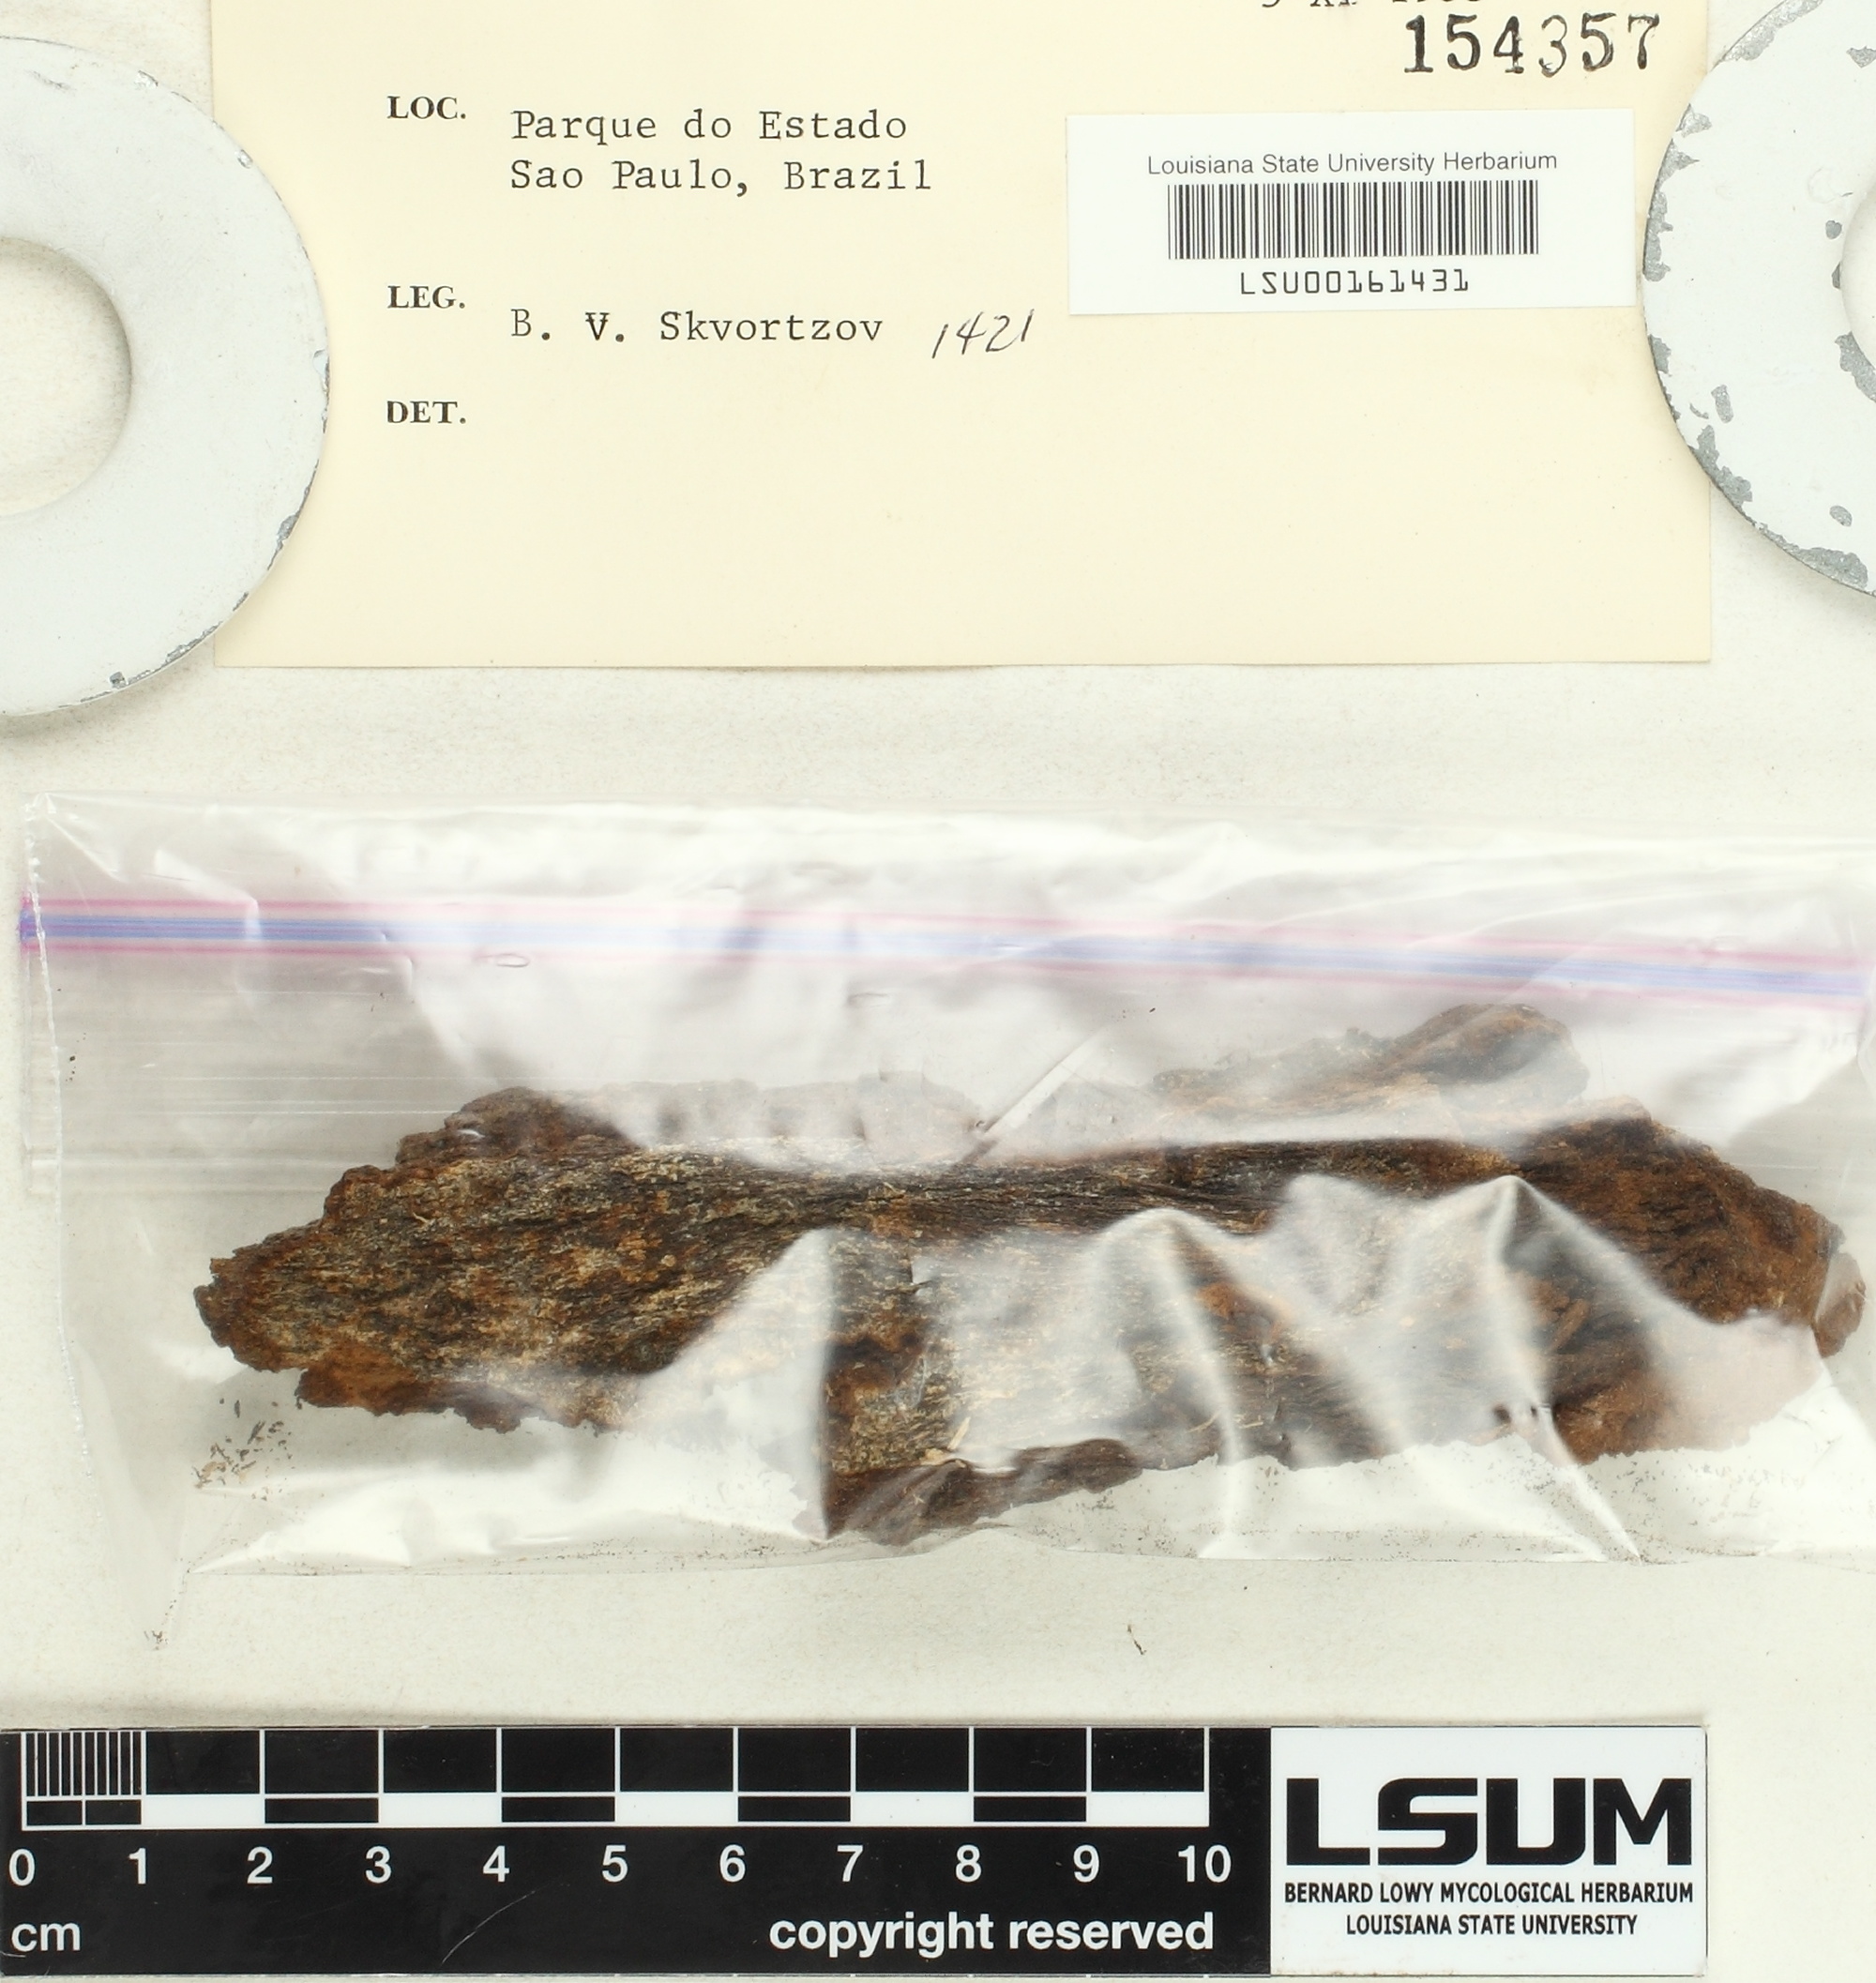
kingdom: Fungi
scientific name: Fungi
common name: Fungi
